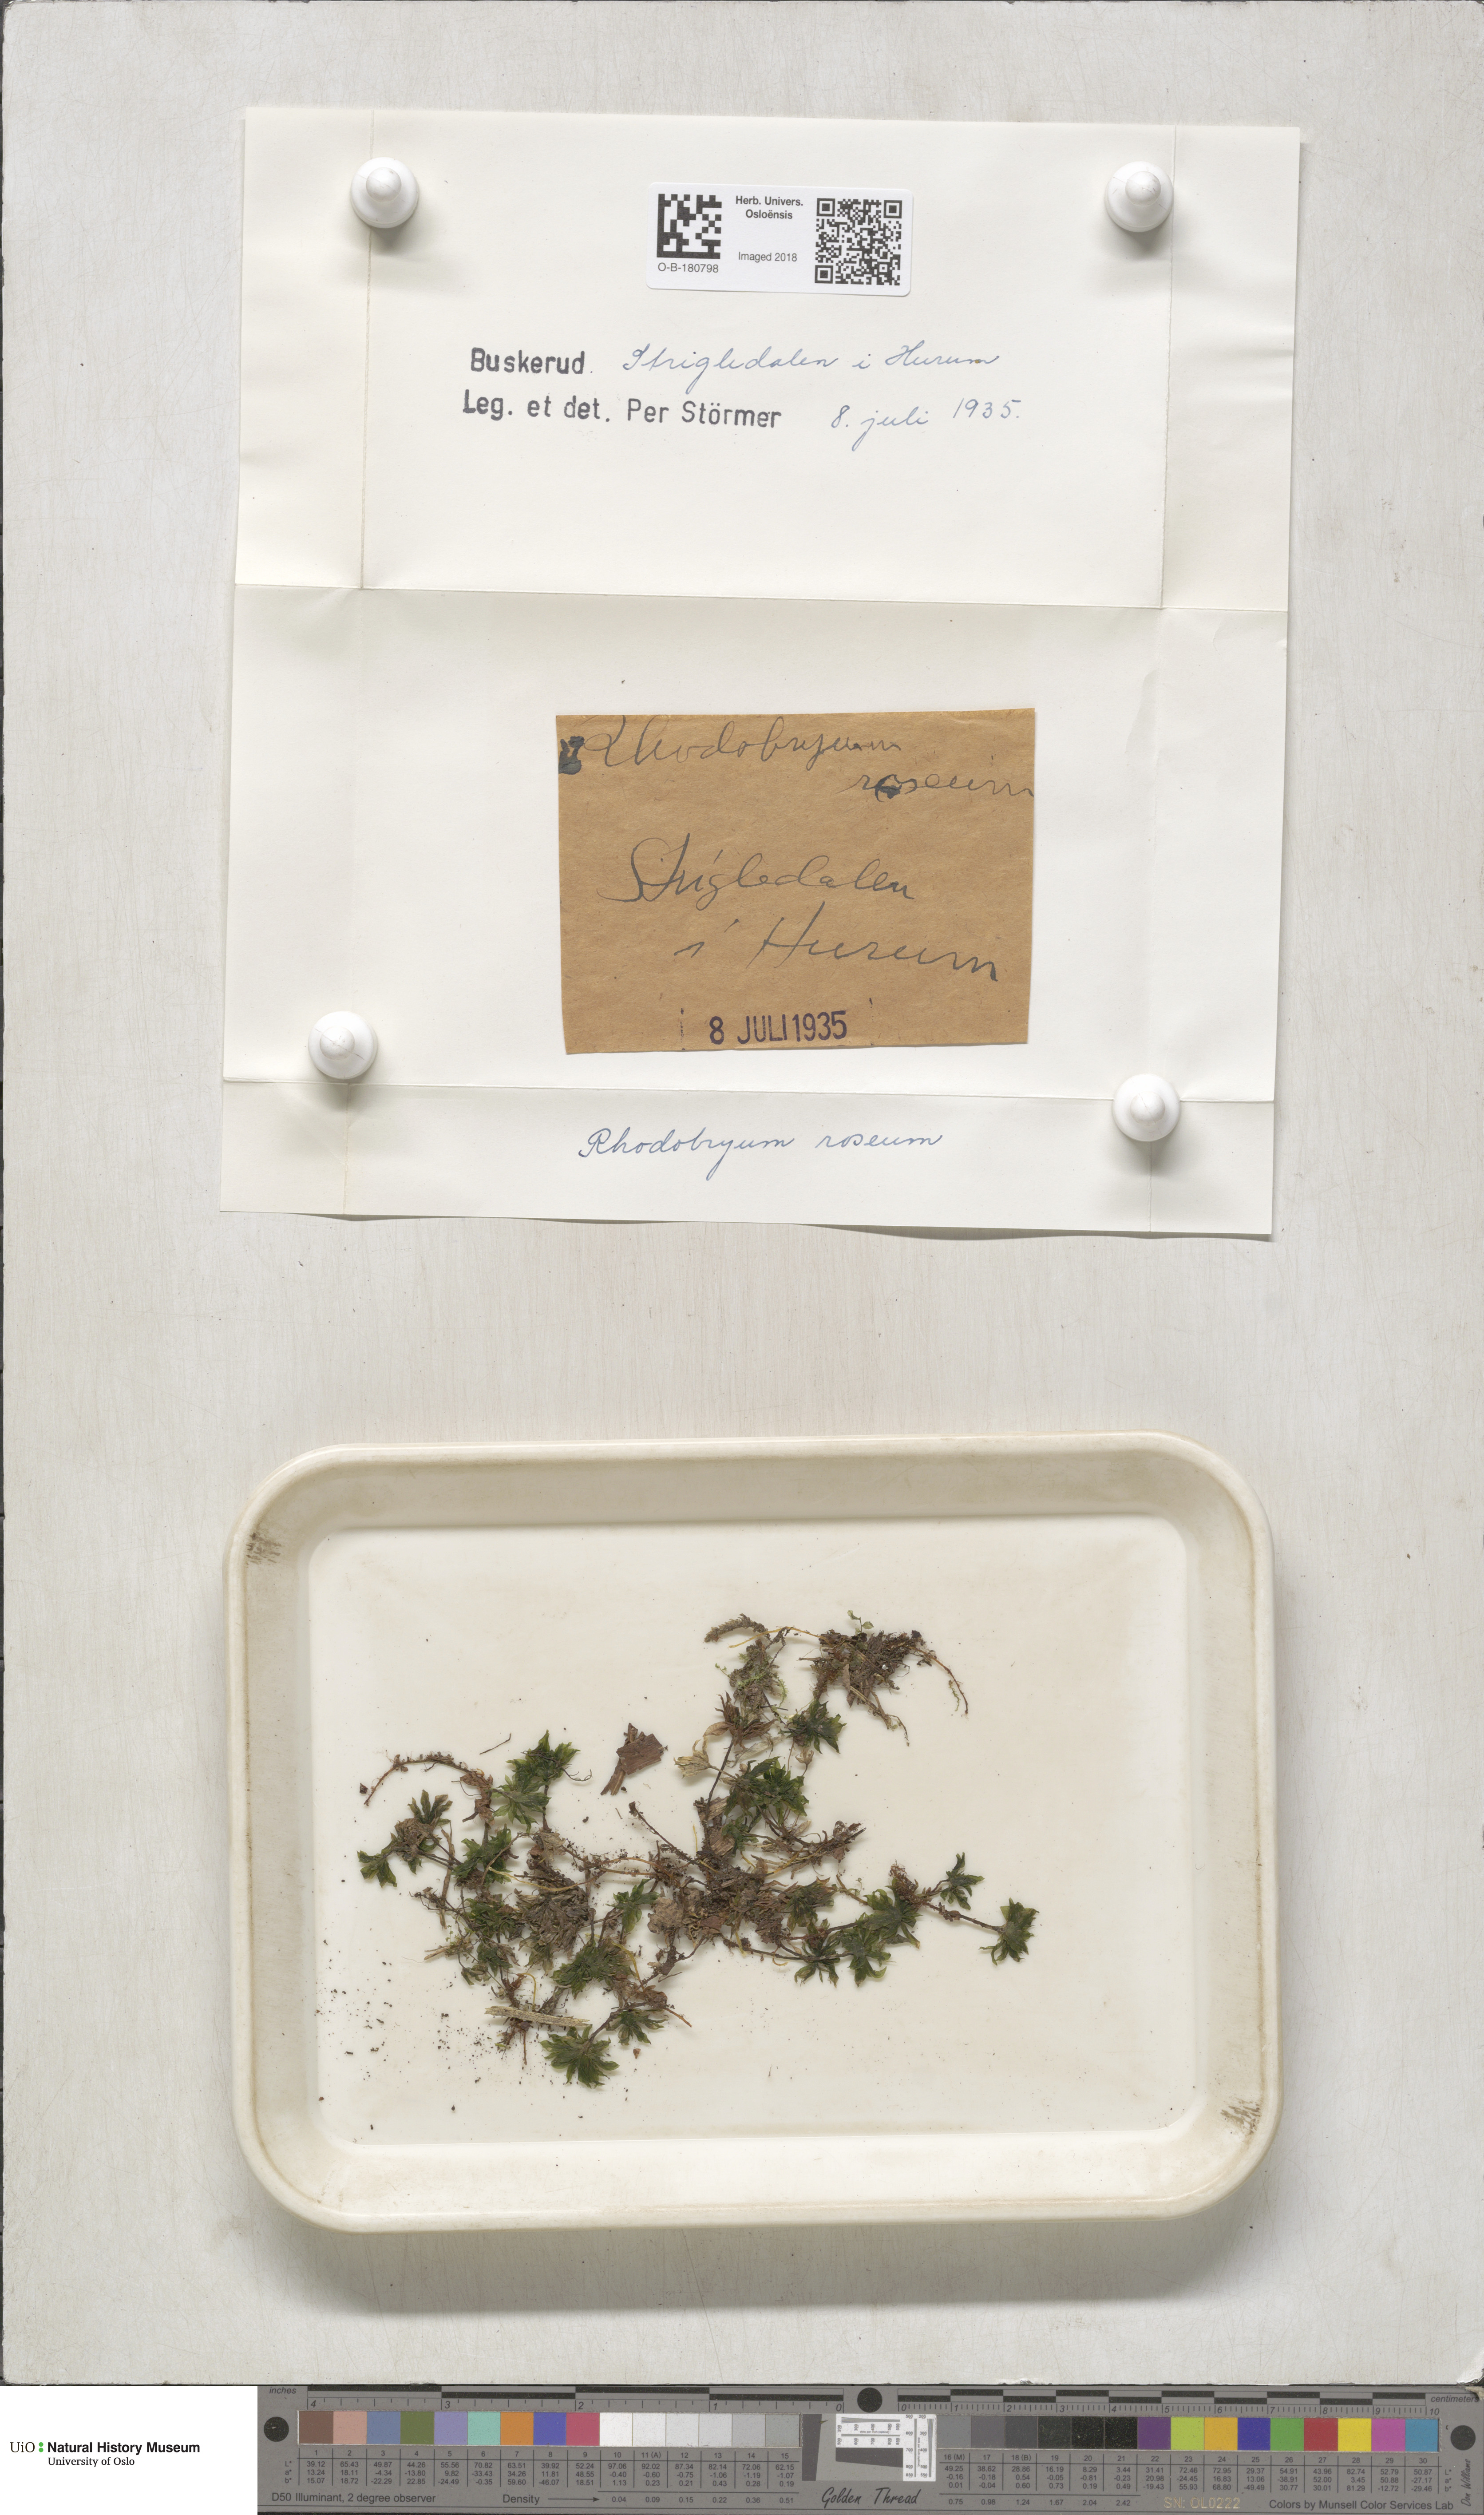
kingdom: Plantae
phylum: Bryophyta
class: Bryopsida
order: Bryales
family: Bryaceae
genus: Rhodobryum
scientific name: Rhodobryum roseum
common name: Rose-moss
